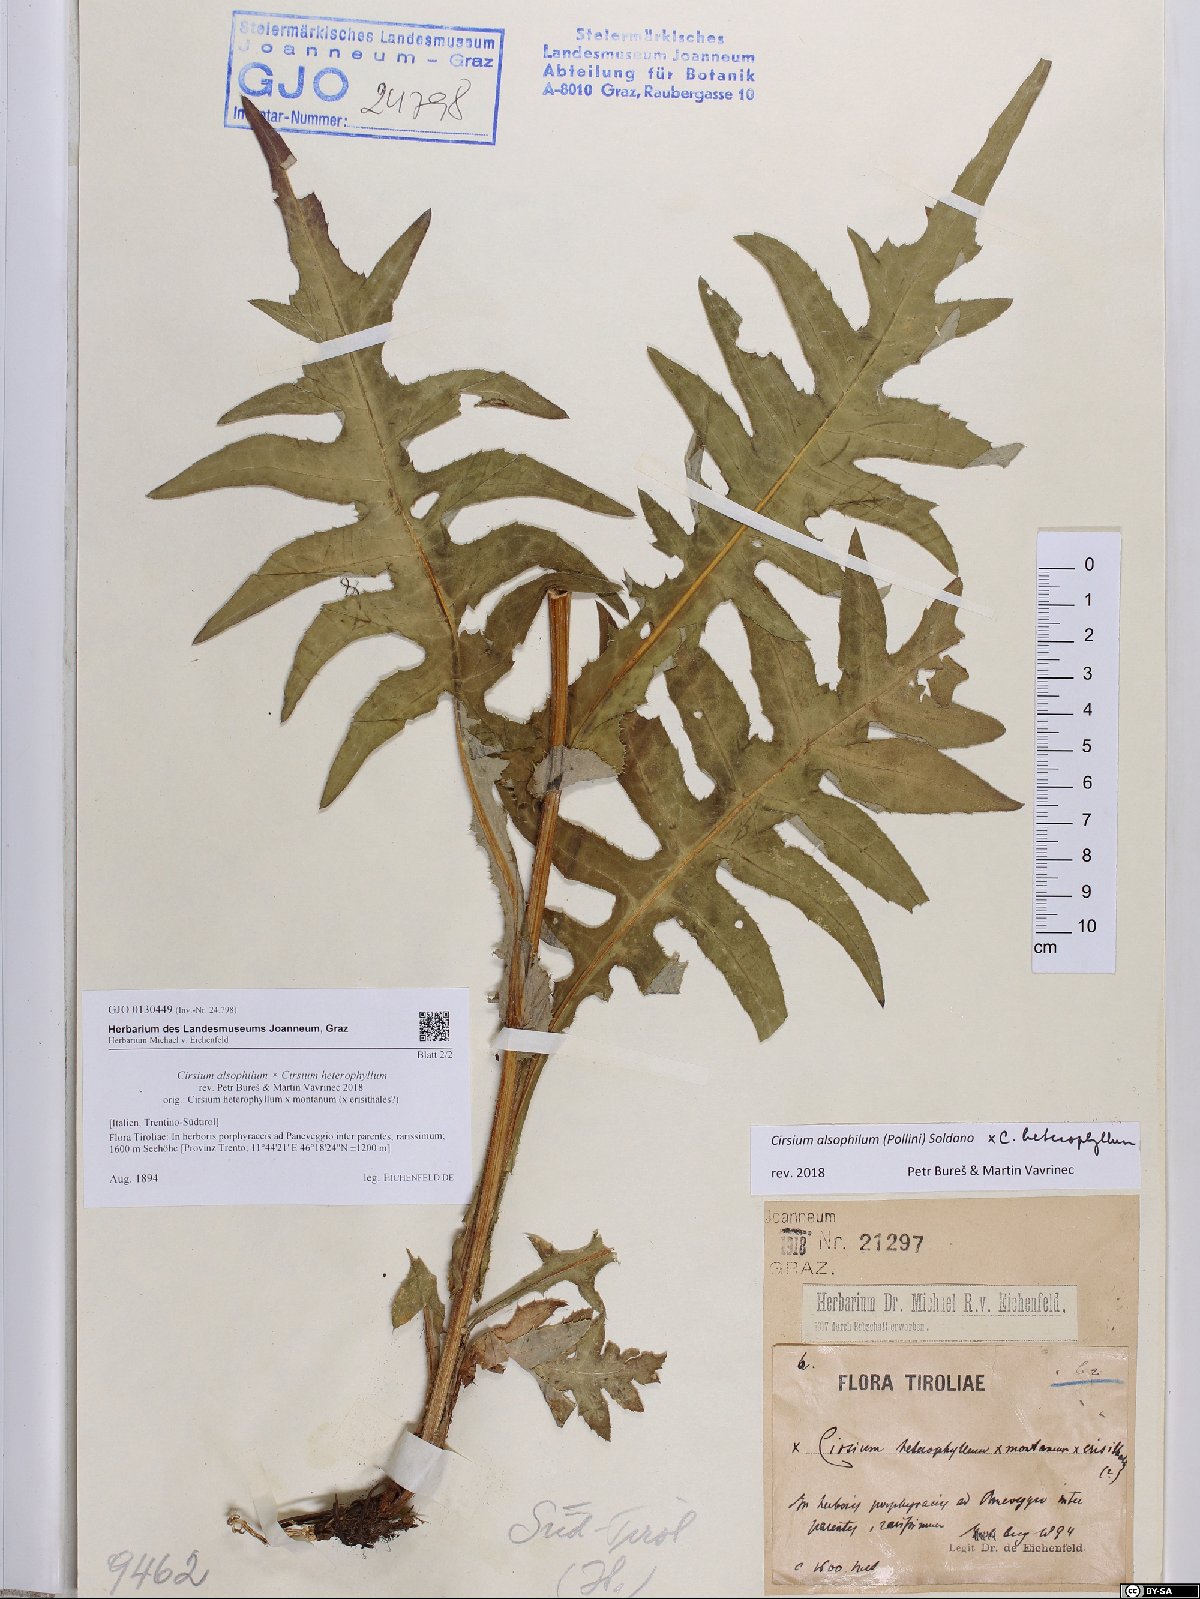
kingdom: Plantae
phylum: Tracheophyta
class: Magnoliopsida
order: Asterales
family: Asteraceae
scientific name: Asteraceae
